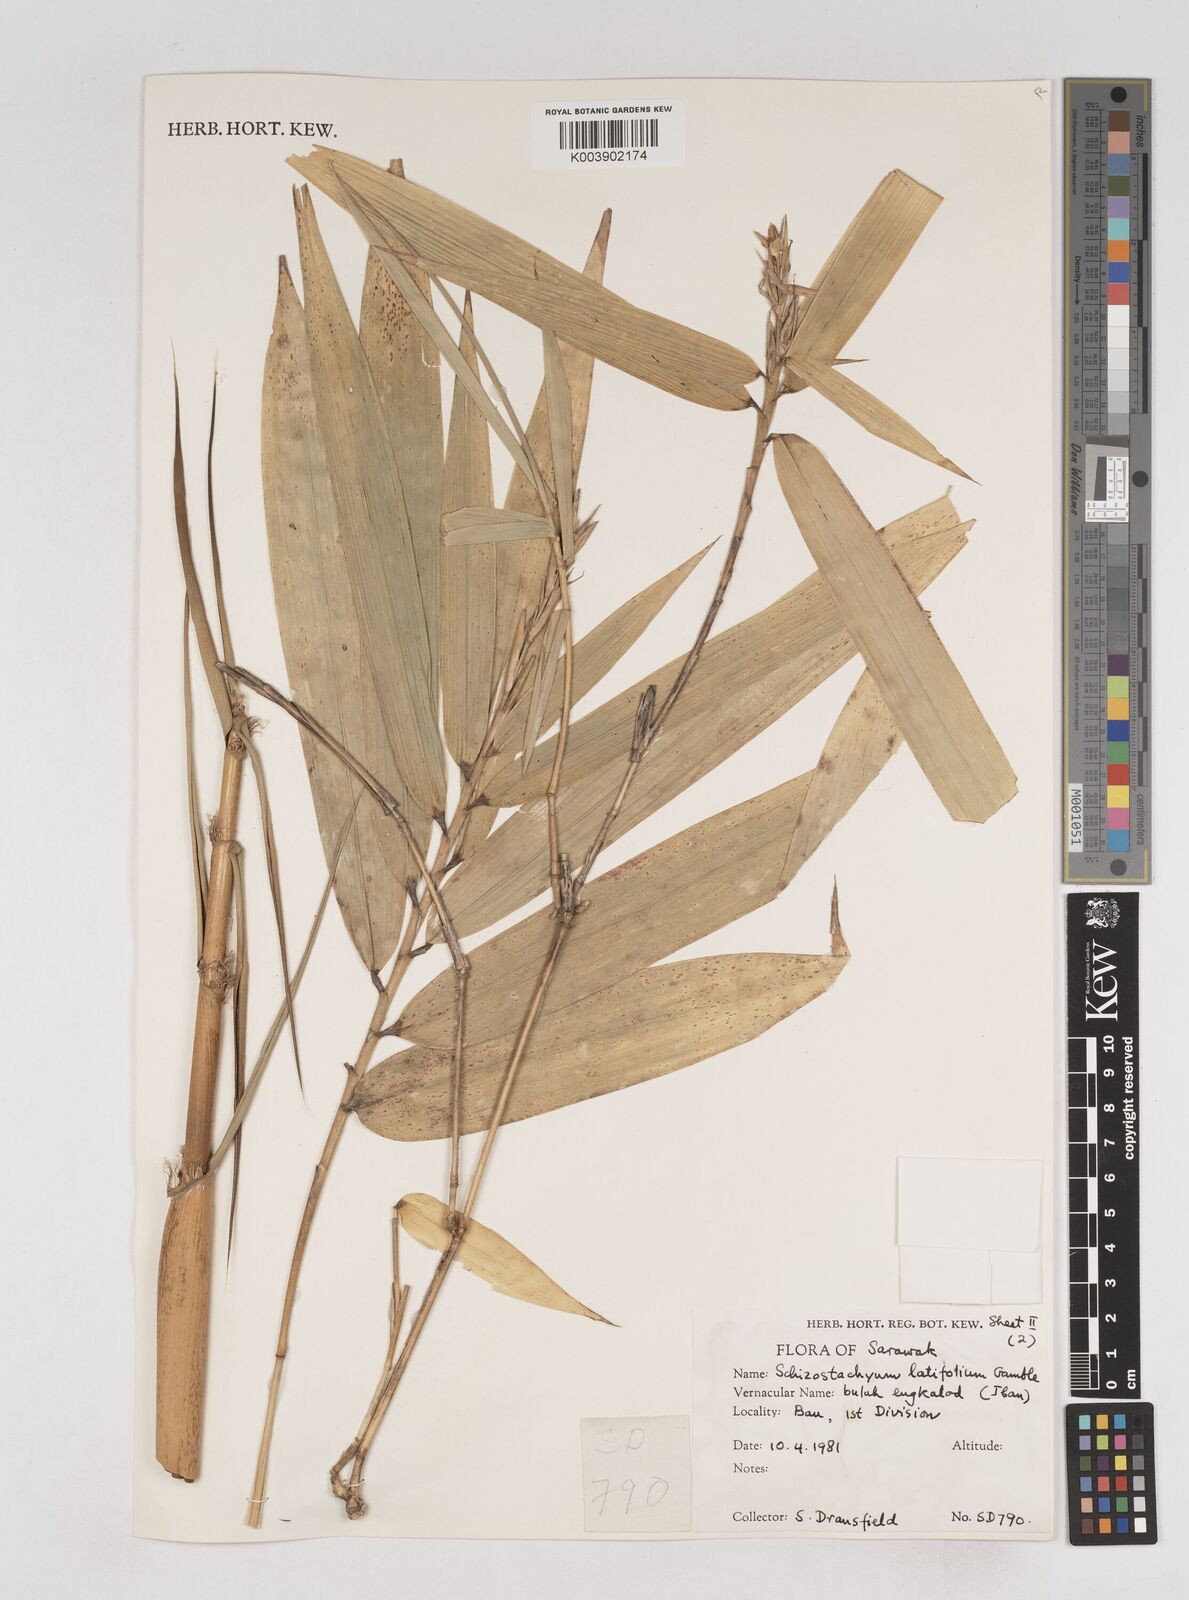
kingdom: Plantae
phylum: Tracheophyta
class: Liliopsida
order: Poales
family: Poaceae
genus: Schizostachyum
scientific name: Schizostachyum latifolium
